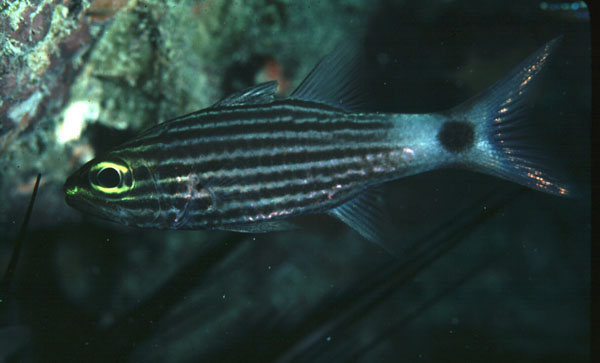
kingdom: Animalia
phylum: Chordata
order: Perciformes
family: Apogonidae
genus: Cheilodipterus
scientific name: Cheilodipterus macrodon
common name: Eight-lined cardinalfish
